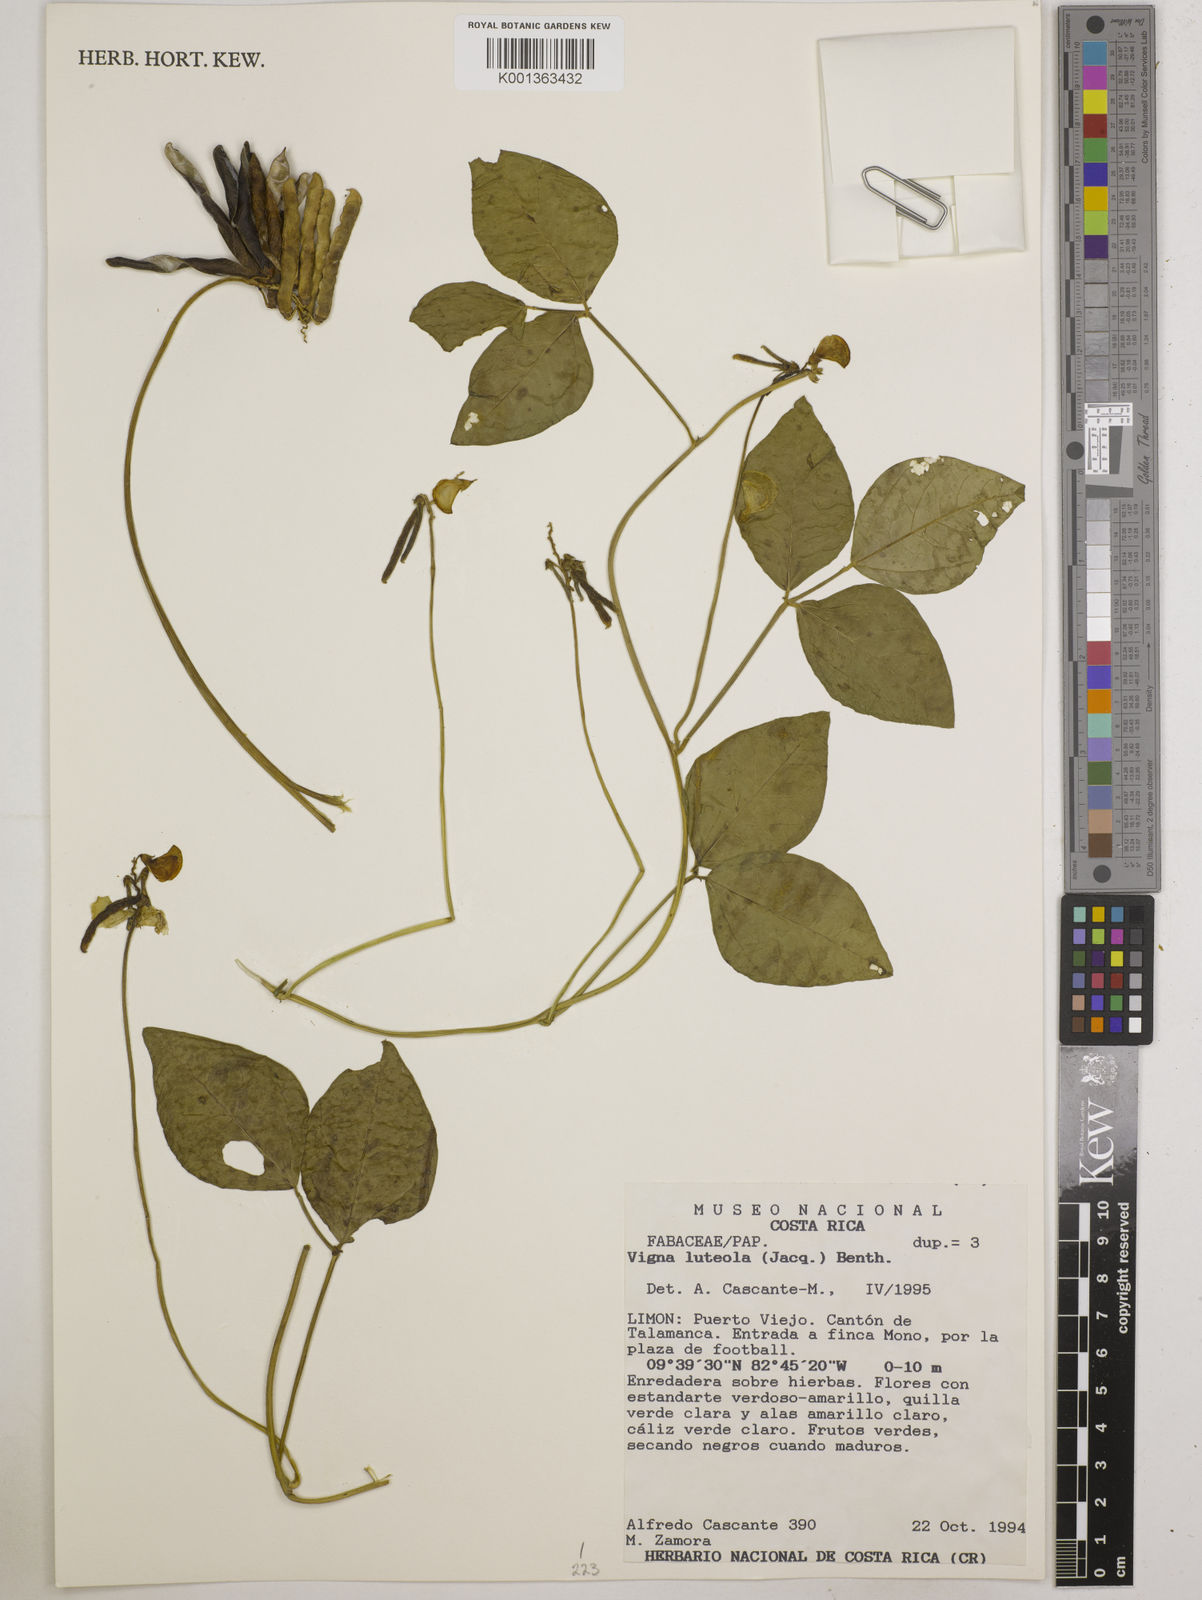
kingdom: Plantae
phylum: Tracheophyta
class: Magnoliopsida
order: Fabales
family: Fabaceae
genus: Vigna
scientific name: Vigna luteola
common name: Hairypod cowpea
